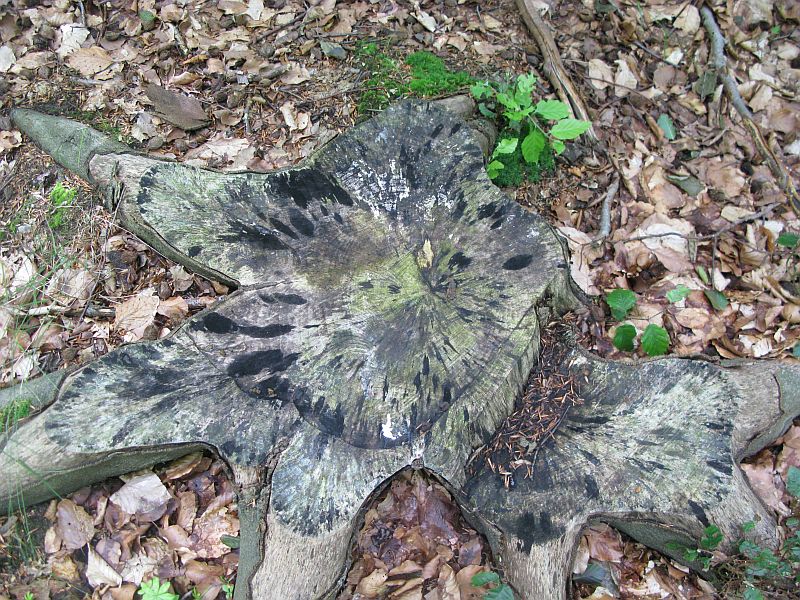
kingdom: Fungi
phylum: Ascomycota
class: Leotiomycetes
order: Helotiales
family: Helotiaceae
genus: Bispora
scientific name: Bispora pallescens
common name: måtte-snitskive
